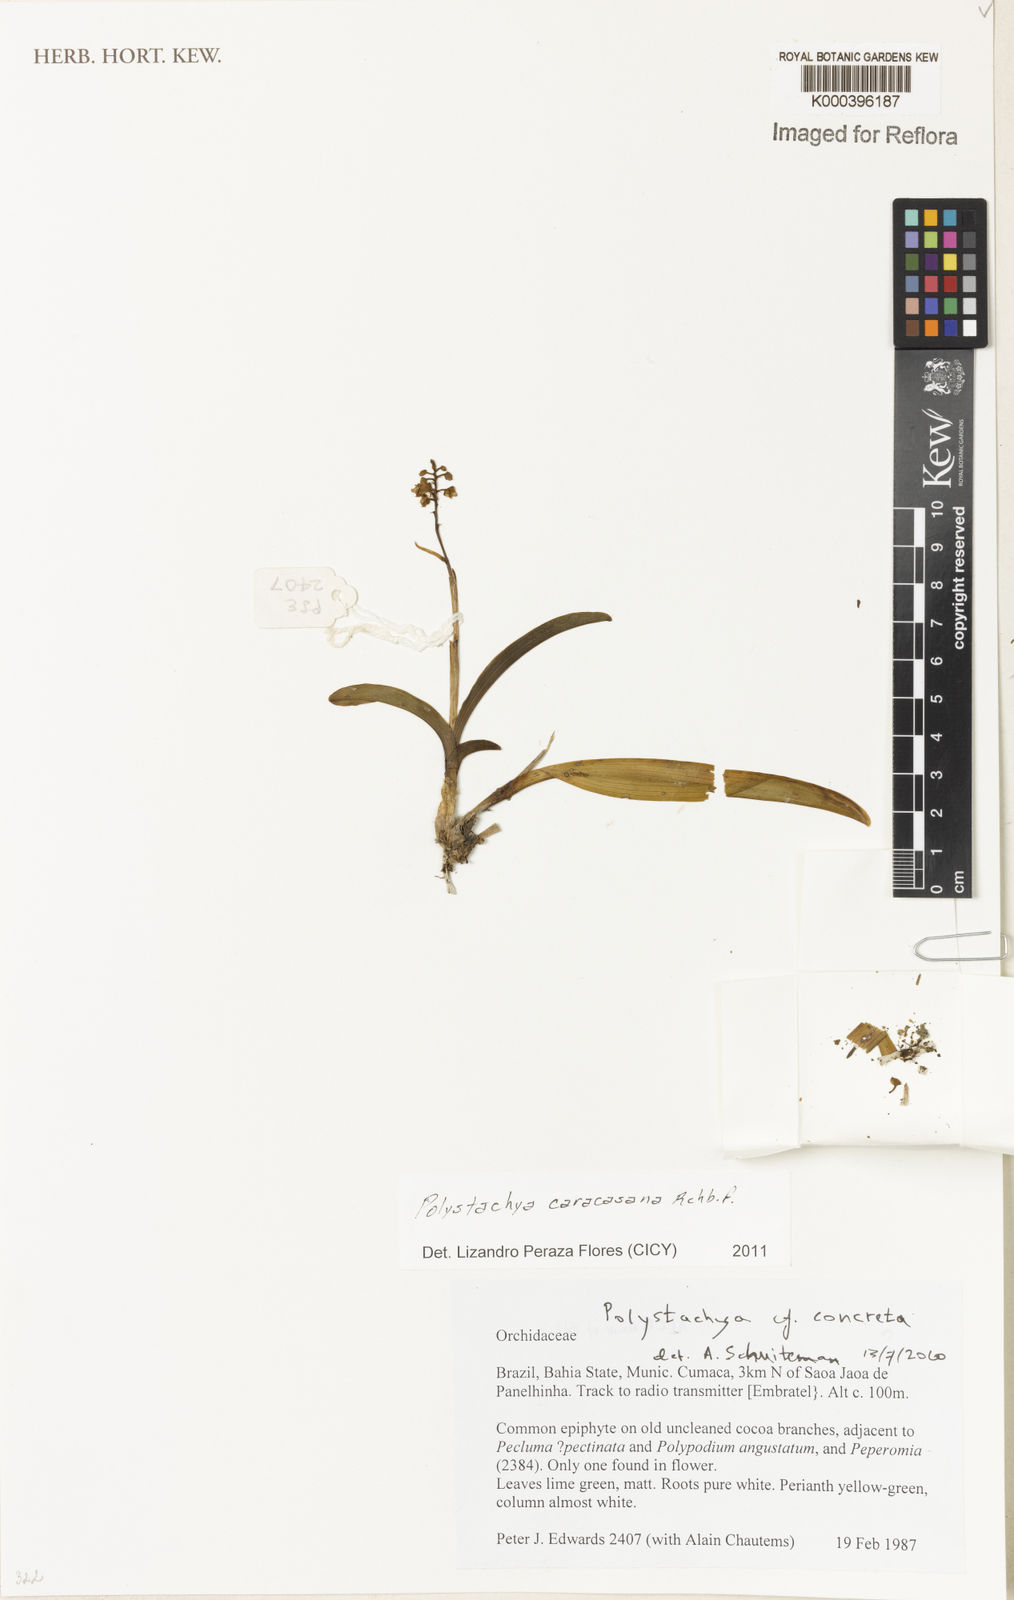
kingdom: Plantae
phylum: Tracheophyta
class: Liliopsida
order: Asparagales
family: Orchidaceae
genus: Polystachya
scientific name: Polystachya foliosa
